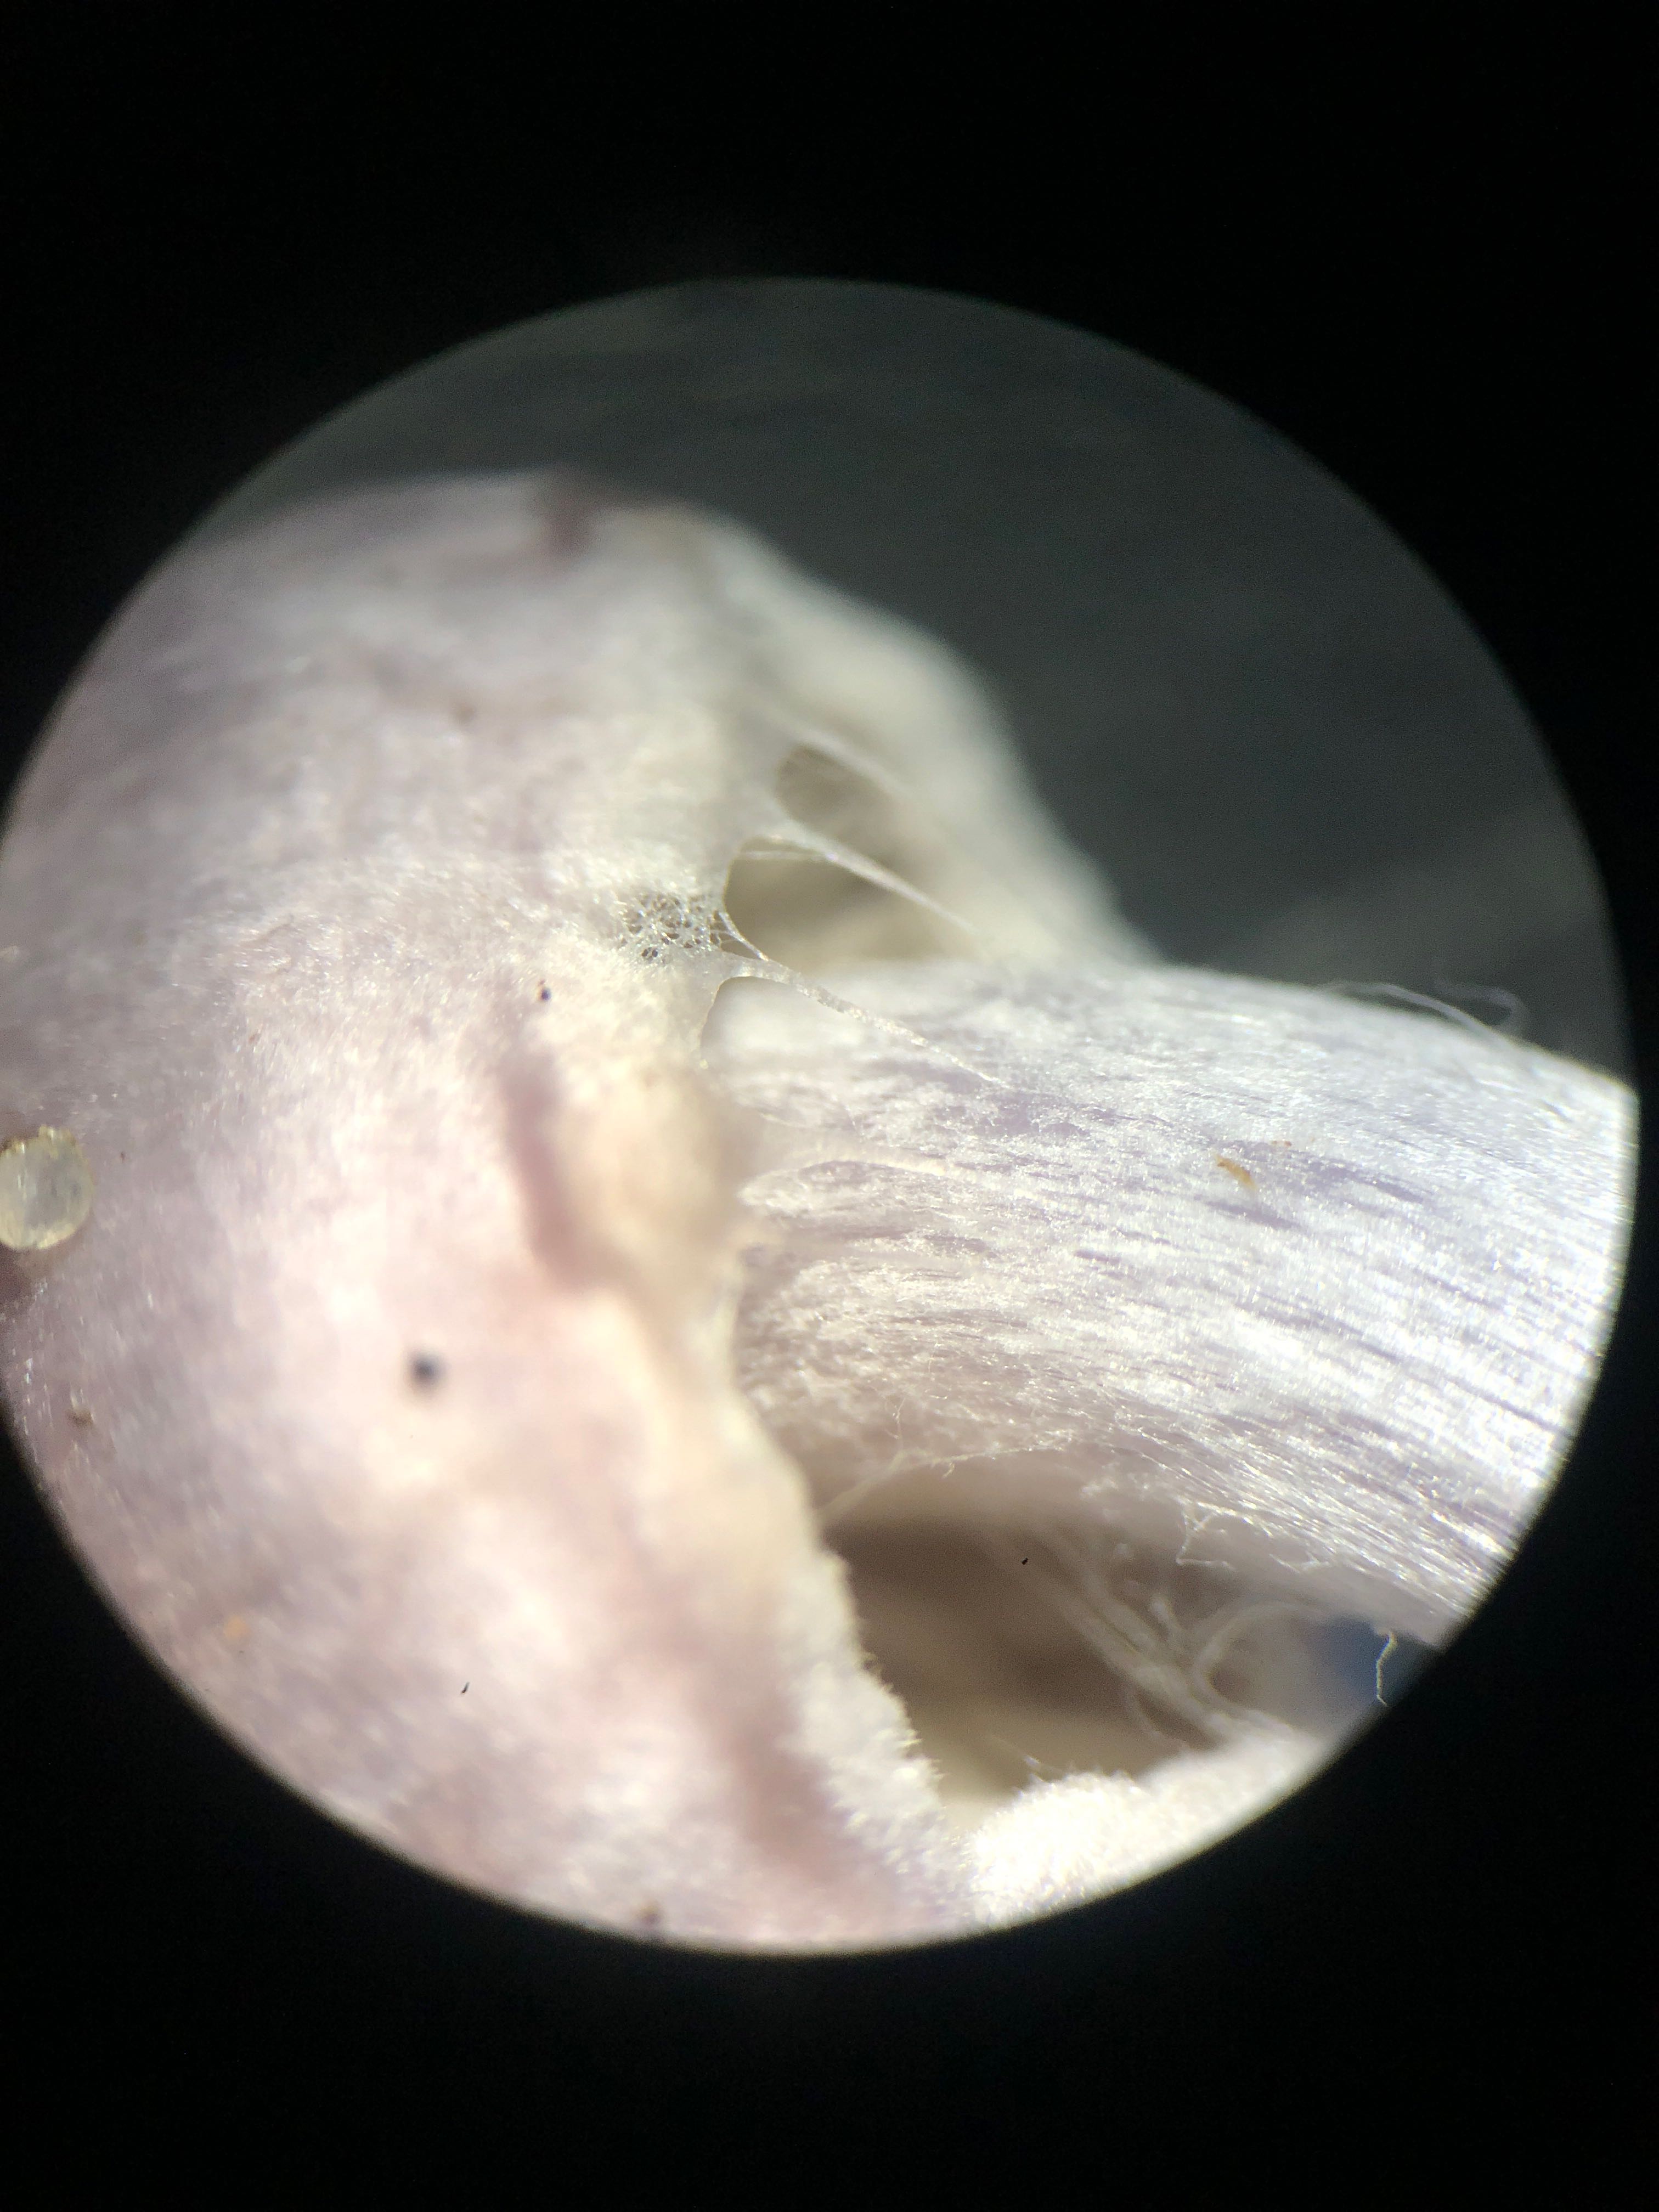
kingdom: Fungi
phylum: Basidiomycota
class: Agaricomycetes
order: Agaricales
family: Inocybaceae
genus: Inocybe
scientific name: Inocybe geophylla
